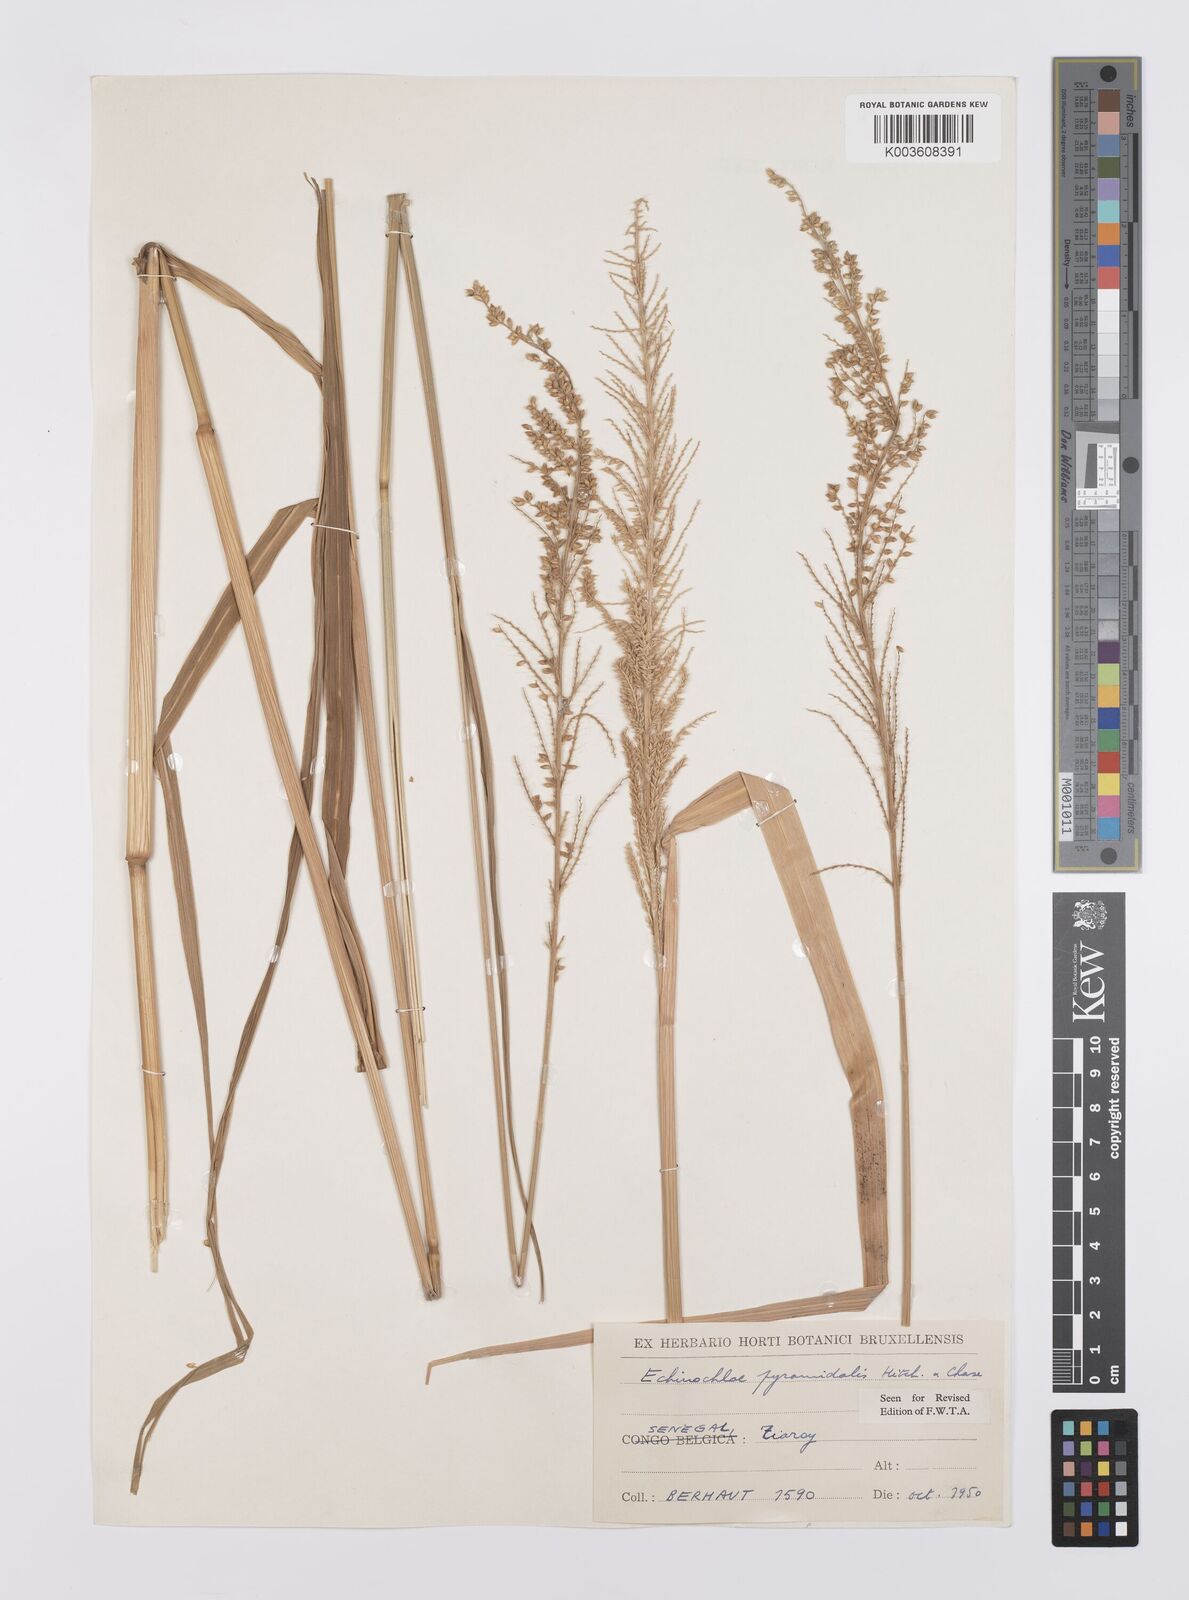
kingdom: Plantae
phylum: Tracheophyta
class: Liliopsida
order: Poales
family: Poaceae
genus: Echinochloa
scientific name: Echinochloa pyramidalis
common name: Antelope grass
